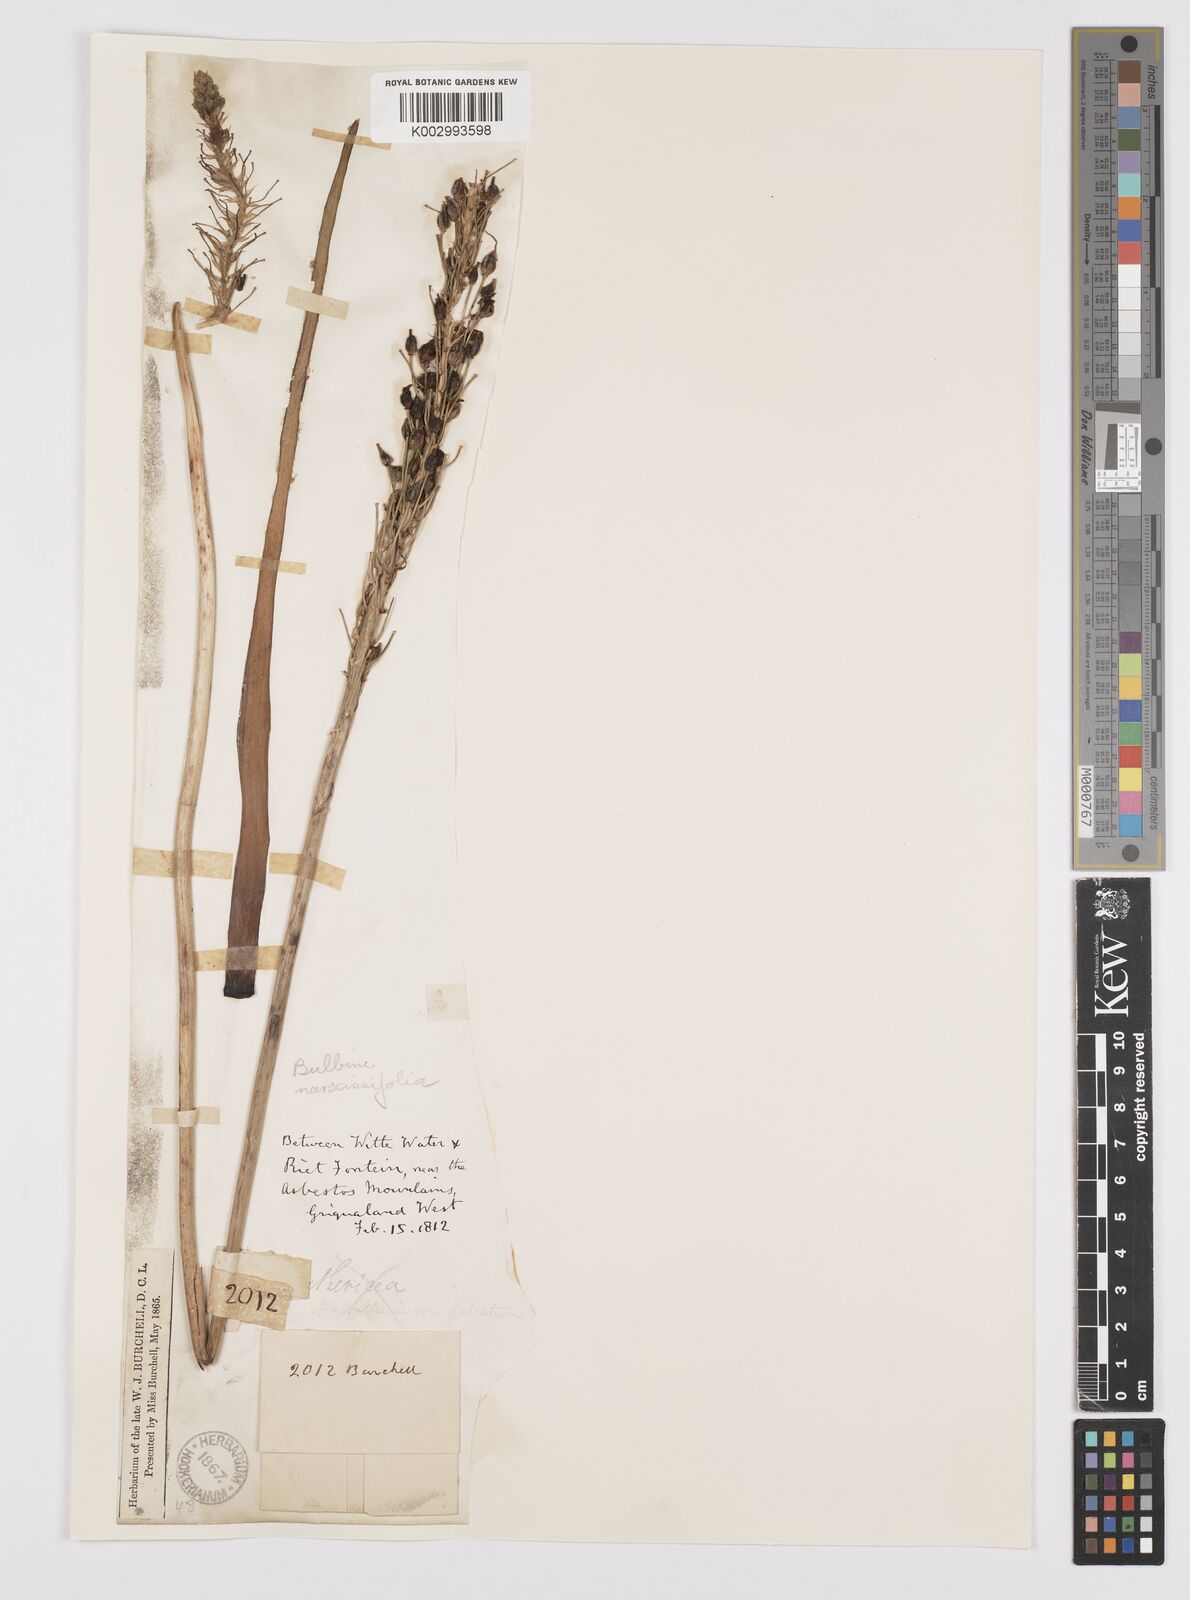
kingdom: Plantae
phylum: Tracheophyta
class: Liliopsida
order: Asparagales
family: Asphodelaceae
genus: Bulbine
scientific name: Bulbine narcissifolia
